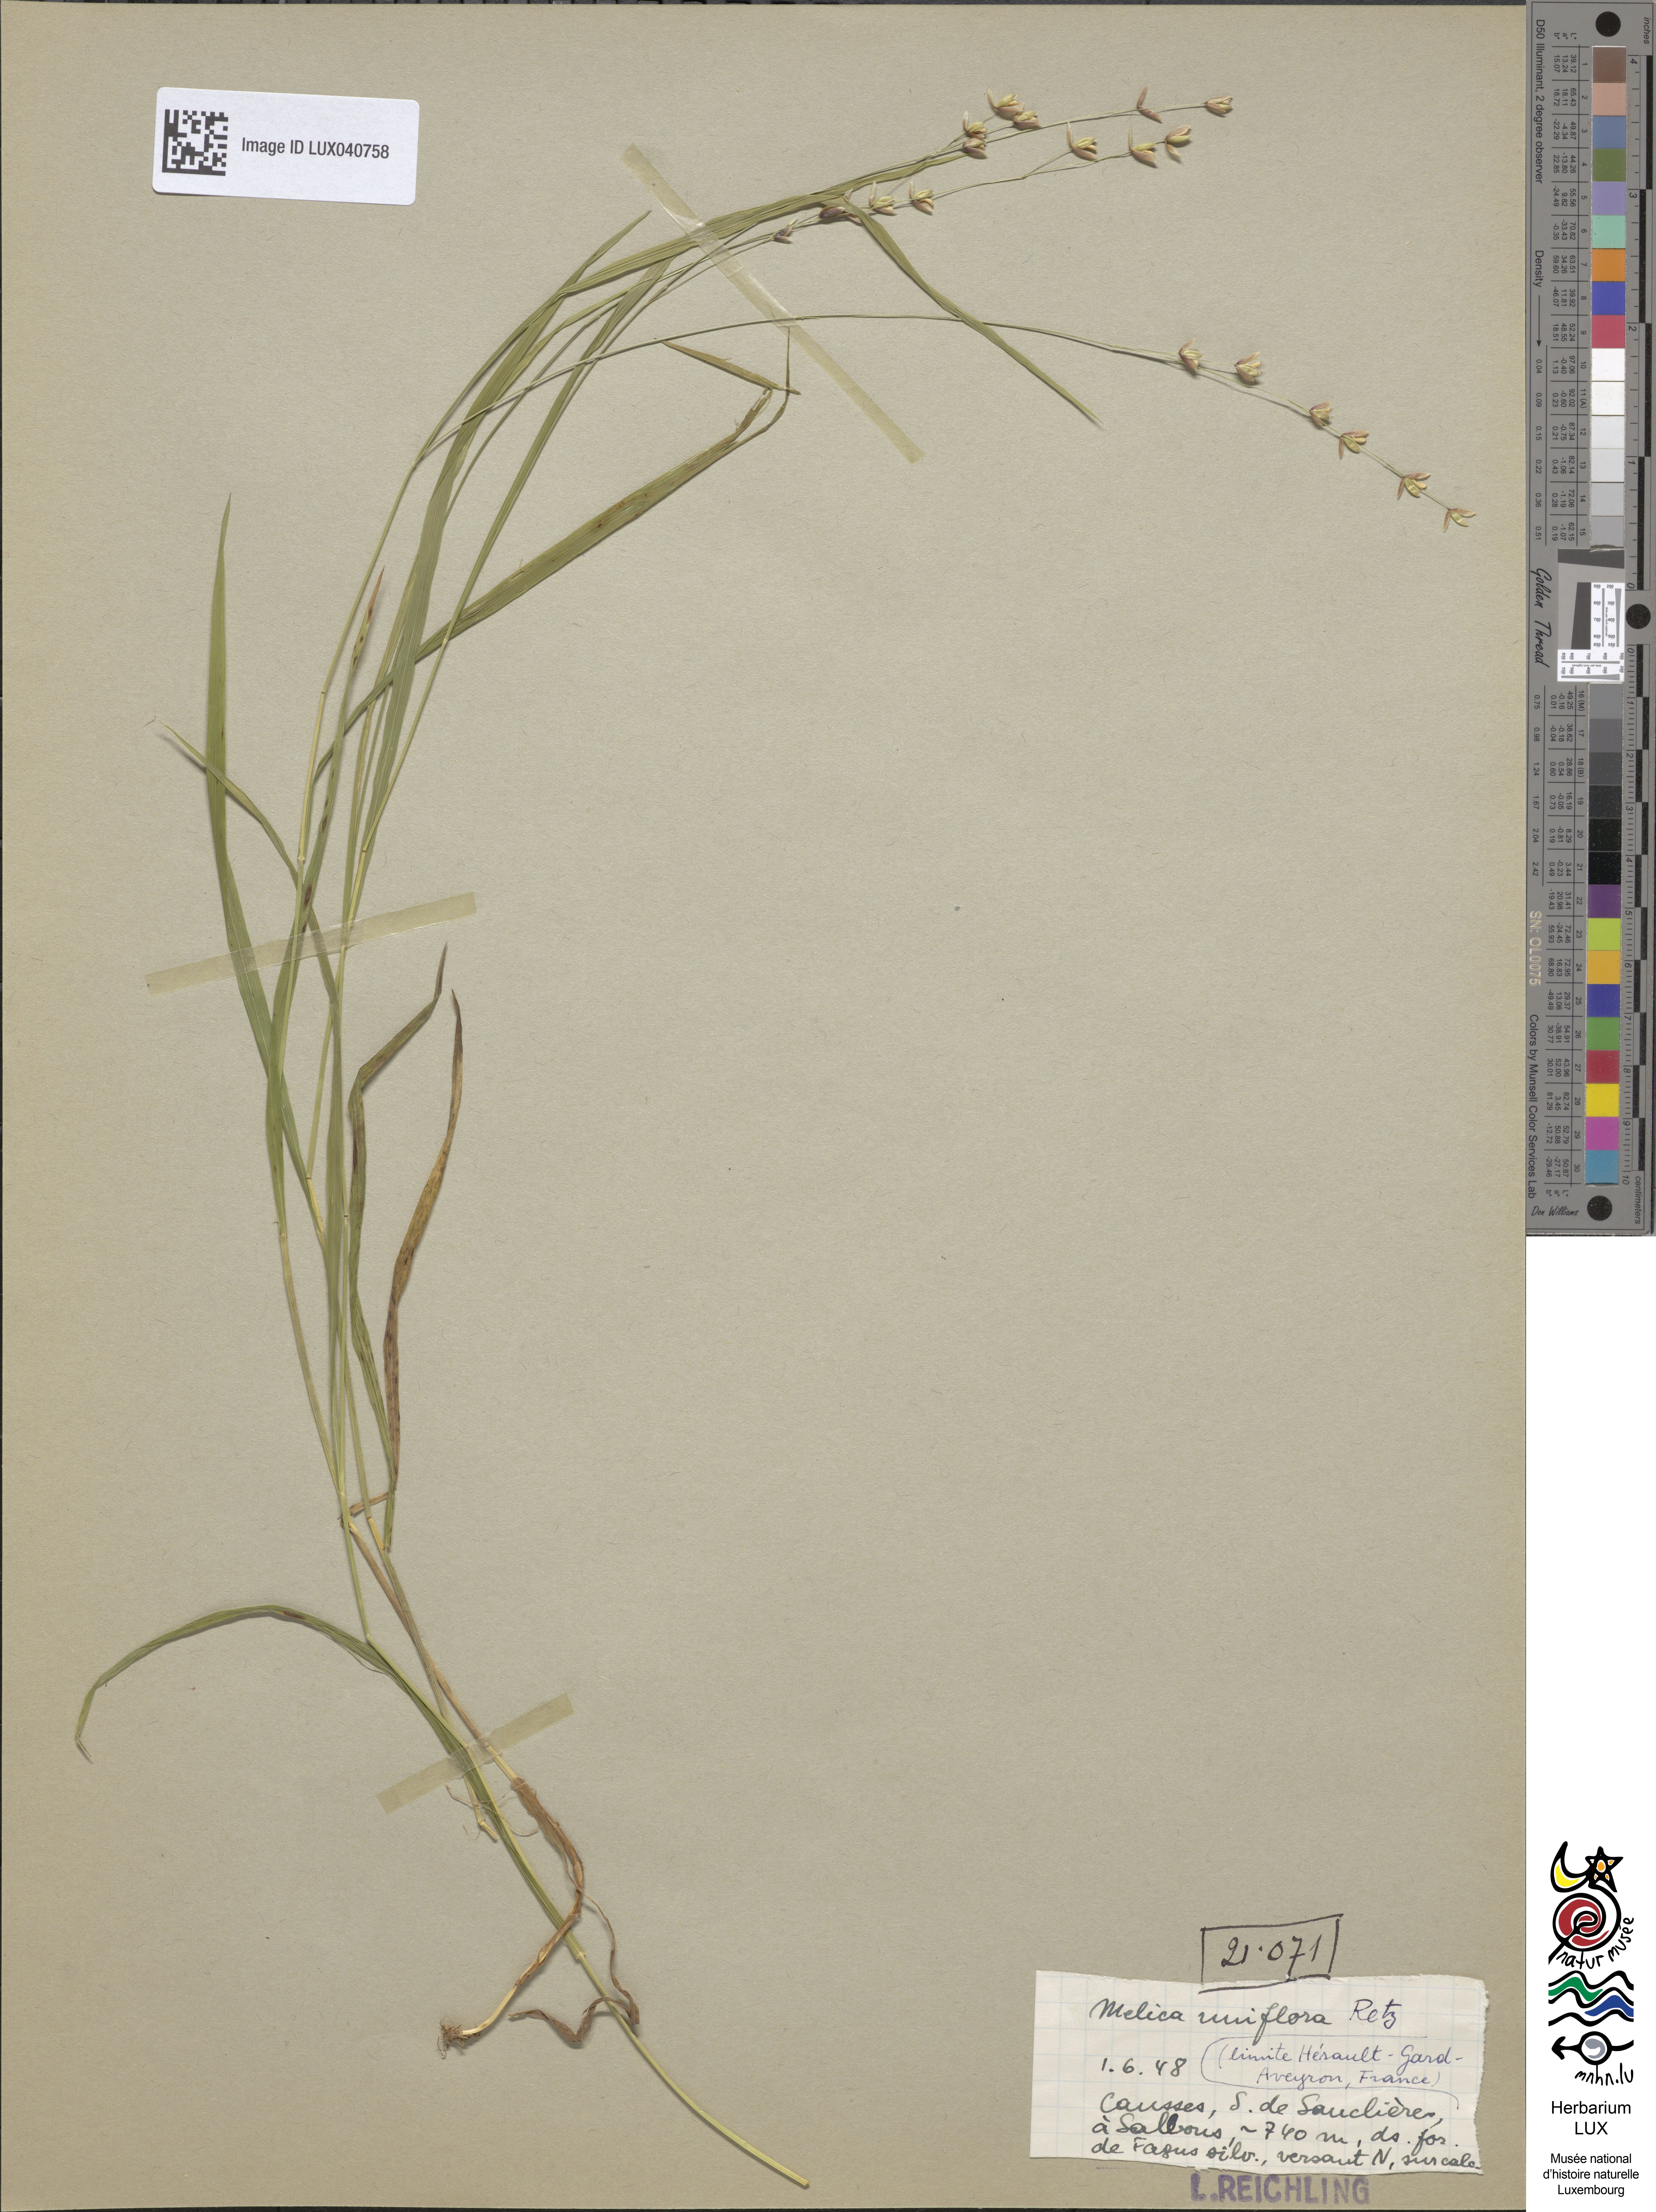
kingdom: Plantae
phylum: Tracheophyta
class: Liliopsida
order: Poales
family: Poaceae
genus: Melica
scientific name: Melica uniflora
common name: Wood melick
